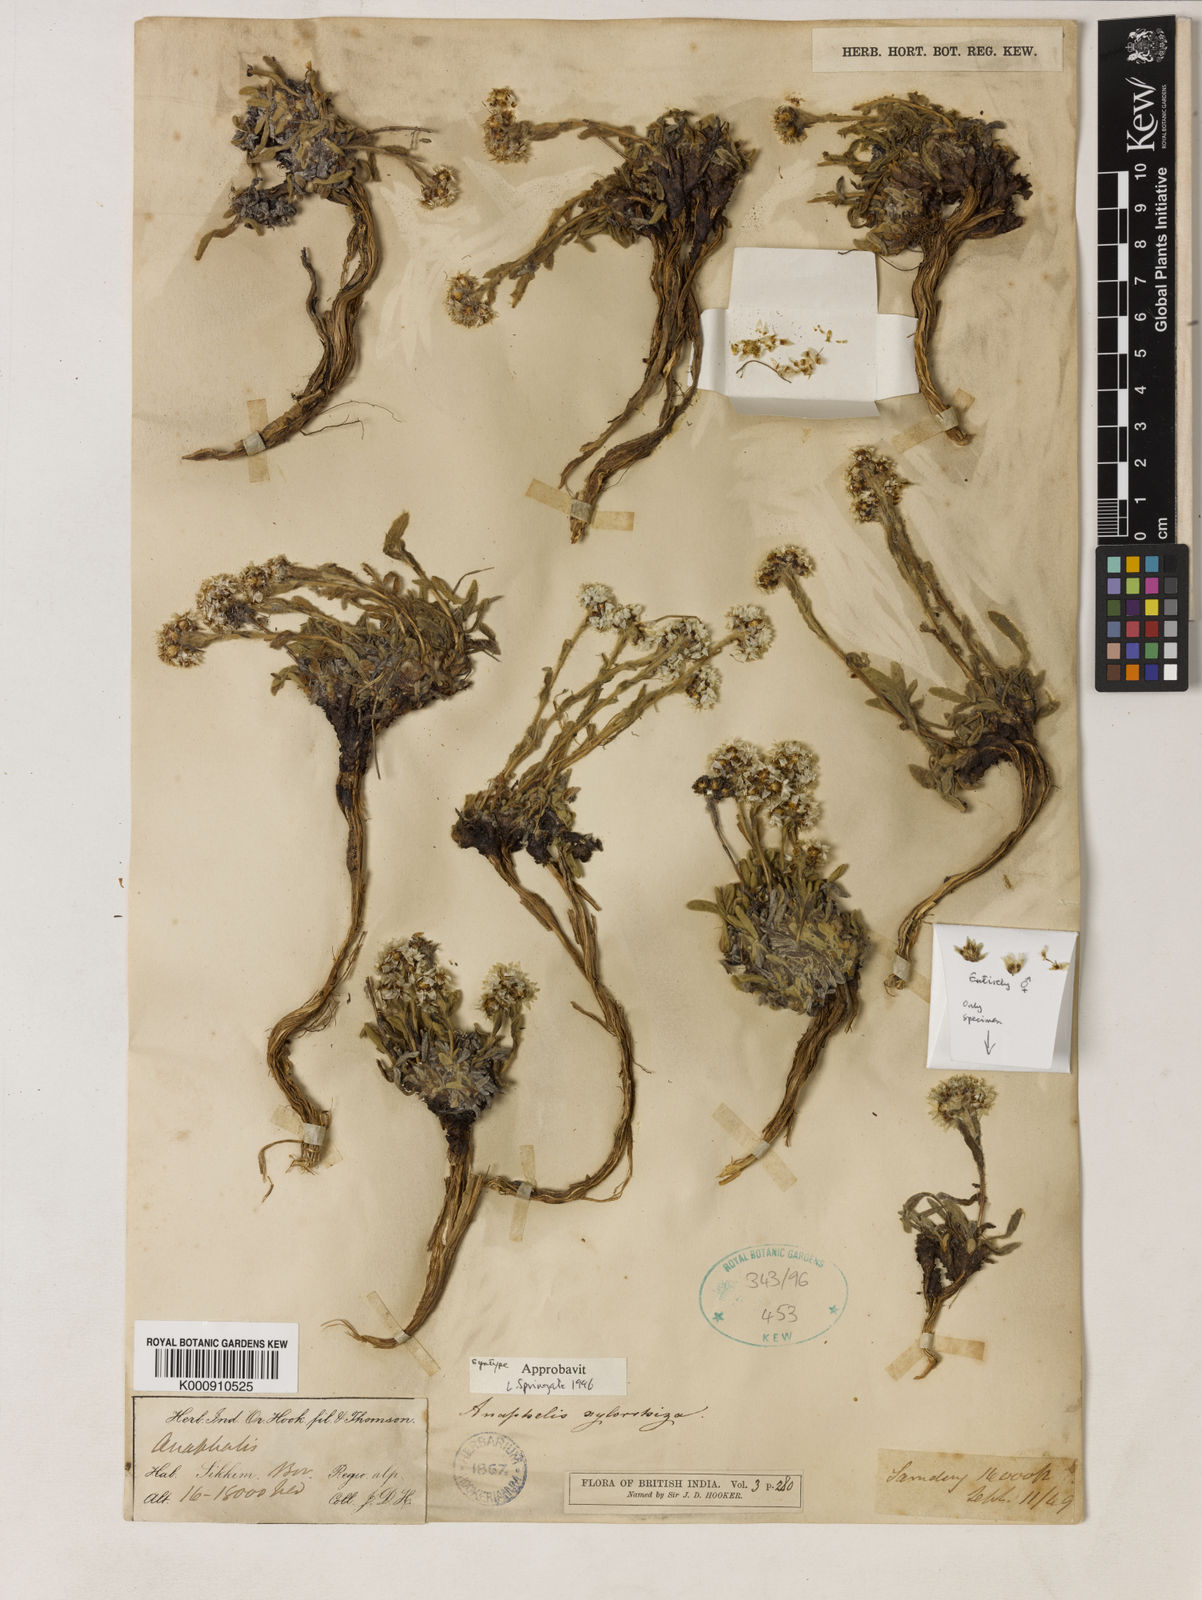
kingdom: Plantae
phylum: Tracheophyta
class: Magnoliopsida
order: Asterales
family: Asteraceae
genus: Anaphalis
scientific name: Anaphalis xylorhiza
